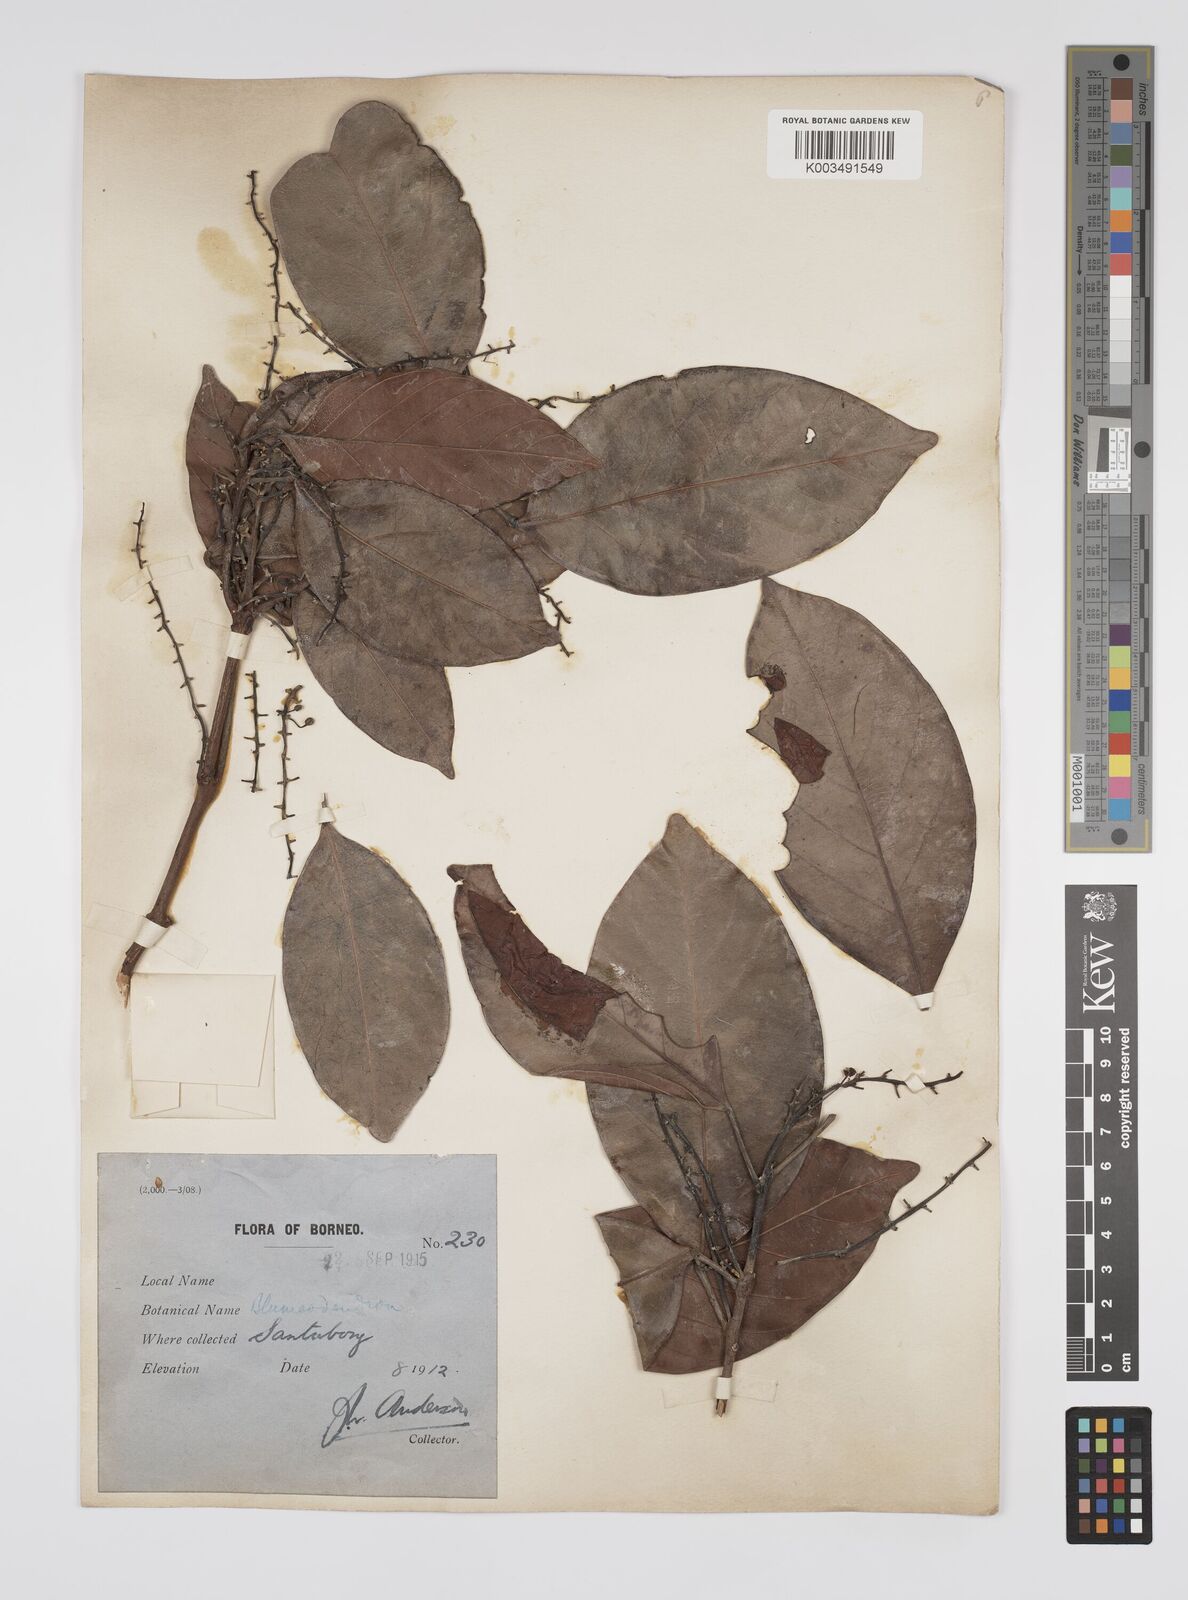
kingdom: Plantae
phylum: Tracheophyta
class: Magnoliopsida
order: Malpighiales
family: Euphorbiaceae
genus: Blumeodendron
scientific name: Blumeodendron
